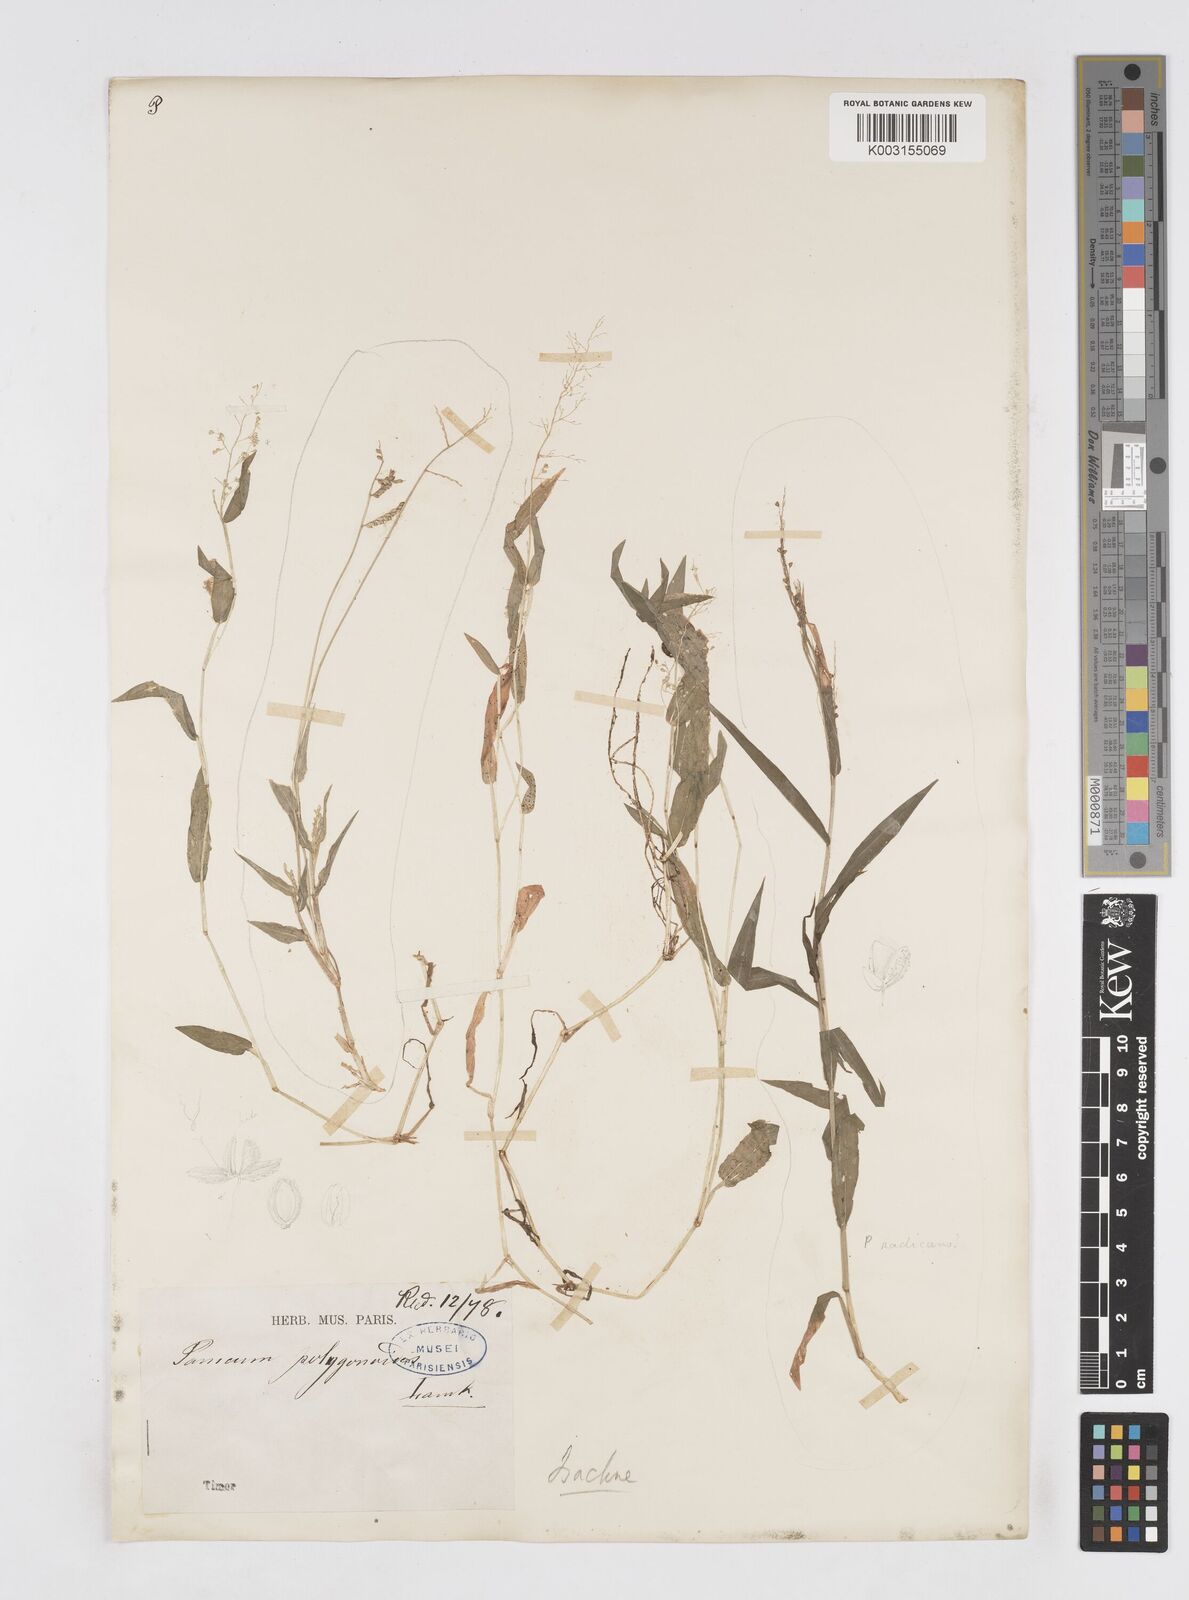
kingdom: Plantae
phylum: Tracheophyta
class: Liliopsida
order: Poales
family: Poaceae
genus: Isachne
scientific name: Isachne
